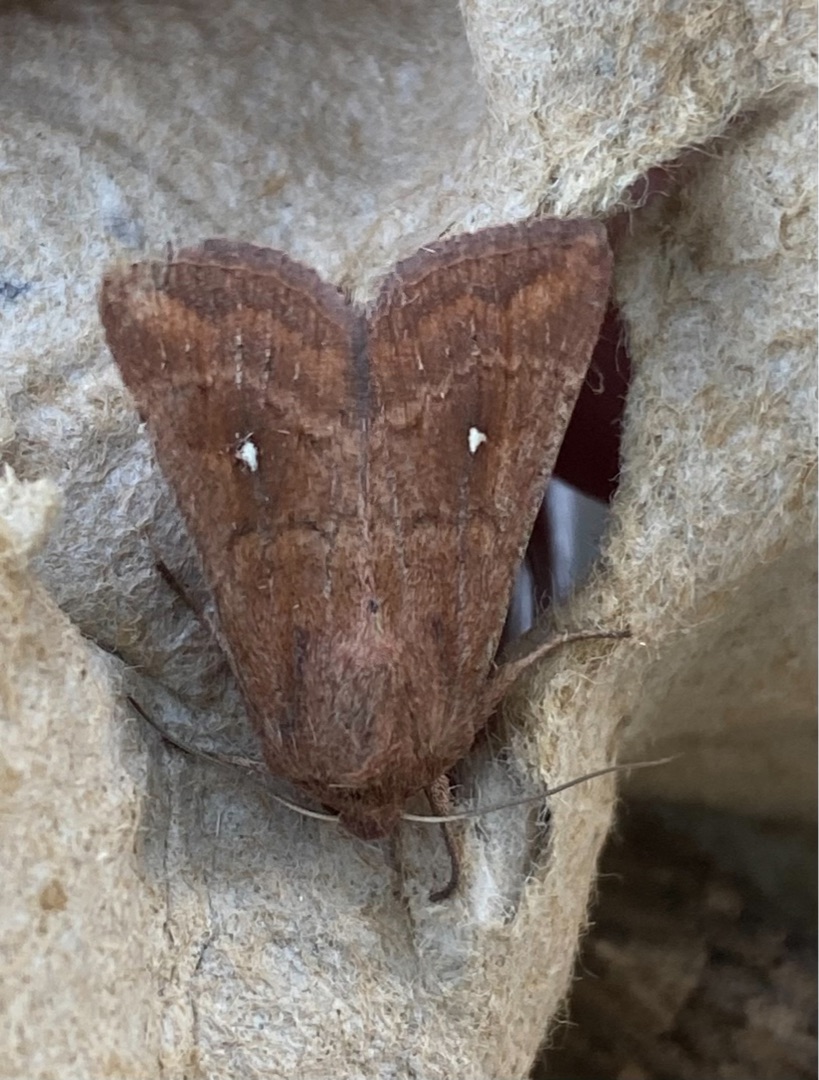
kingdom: Animalia
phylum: Arthropoda
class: Insecta
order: Lepidoptera
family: Noctuidae
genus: Mythimna
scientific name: Mythimna albipuncta
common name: Hvid-punkt græsugle
